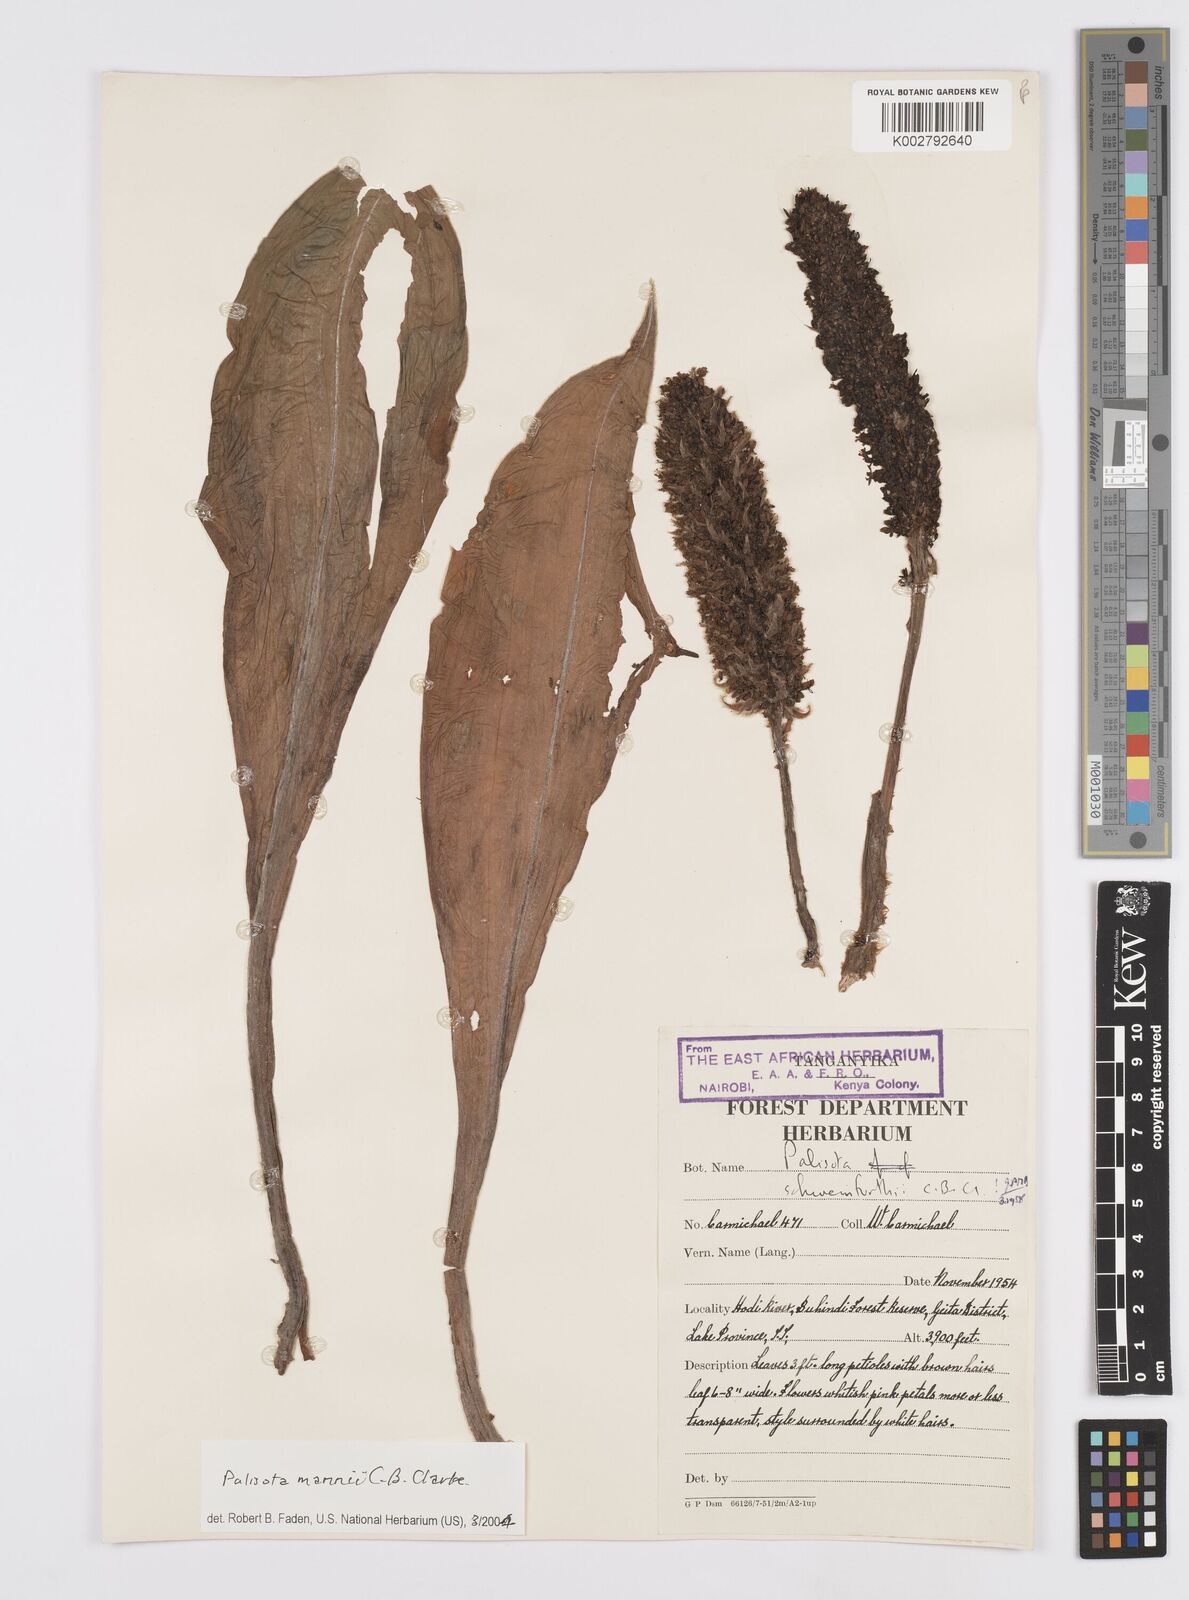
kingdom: Plantae
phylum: Tracheophyta
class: Liliopsida
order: Commelinales
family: Commelinaceae
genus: Palisota
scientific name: Palisota mannii
